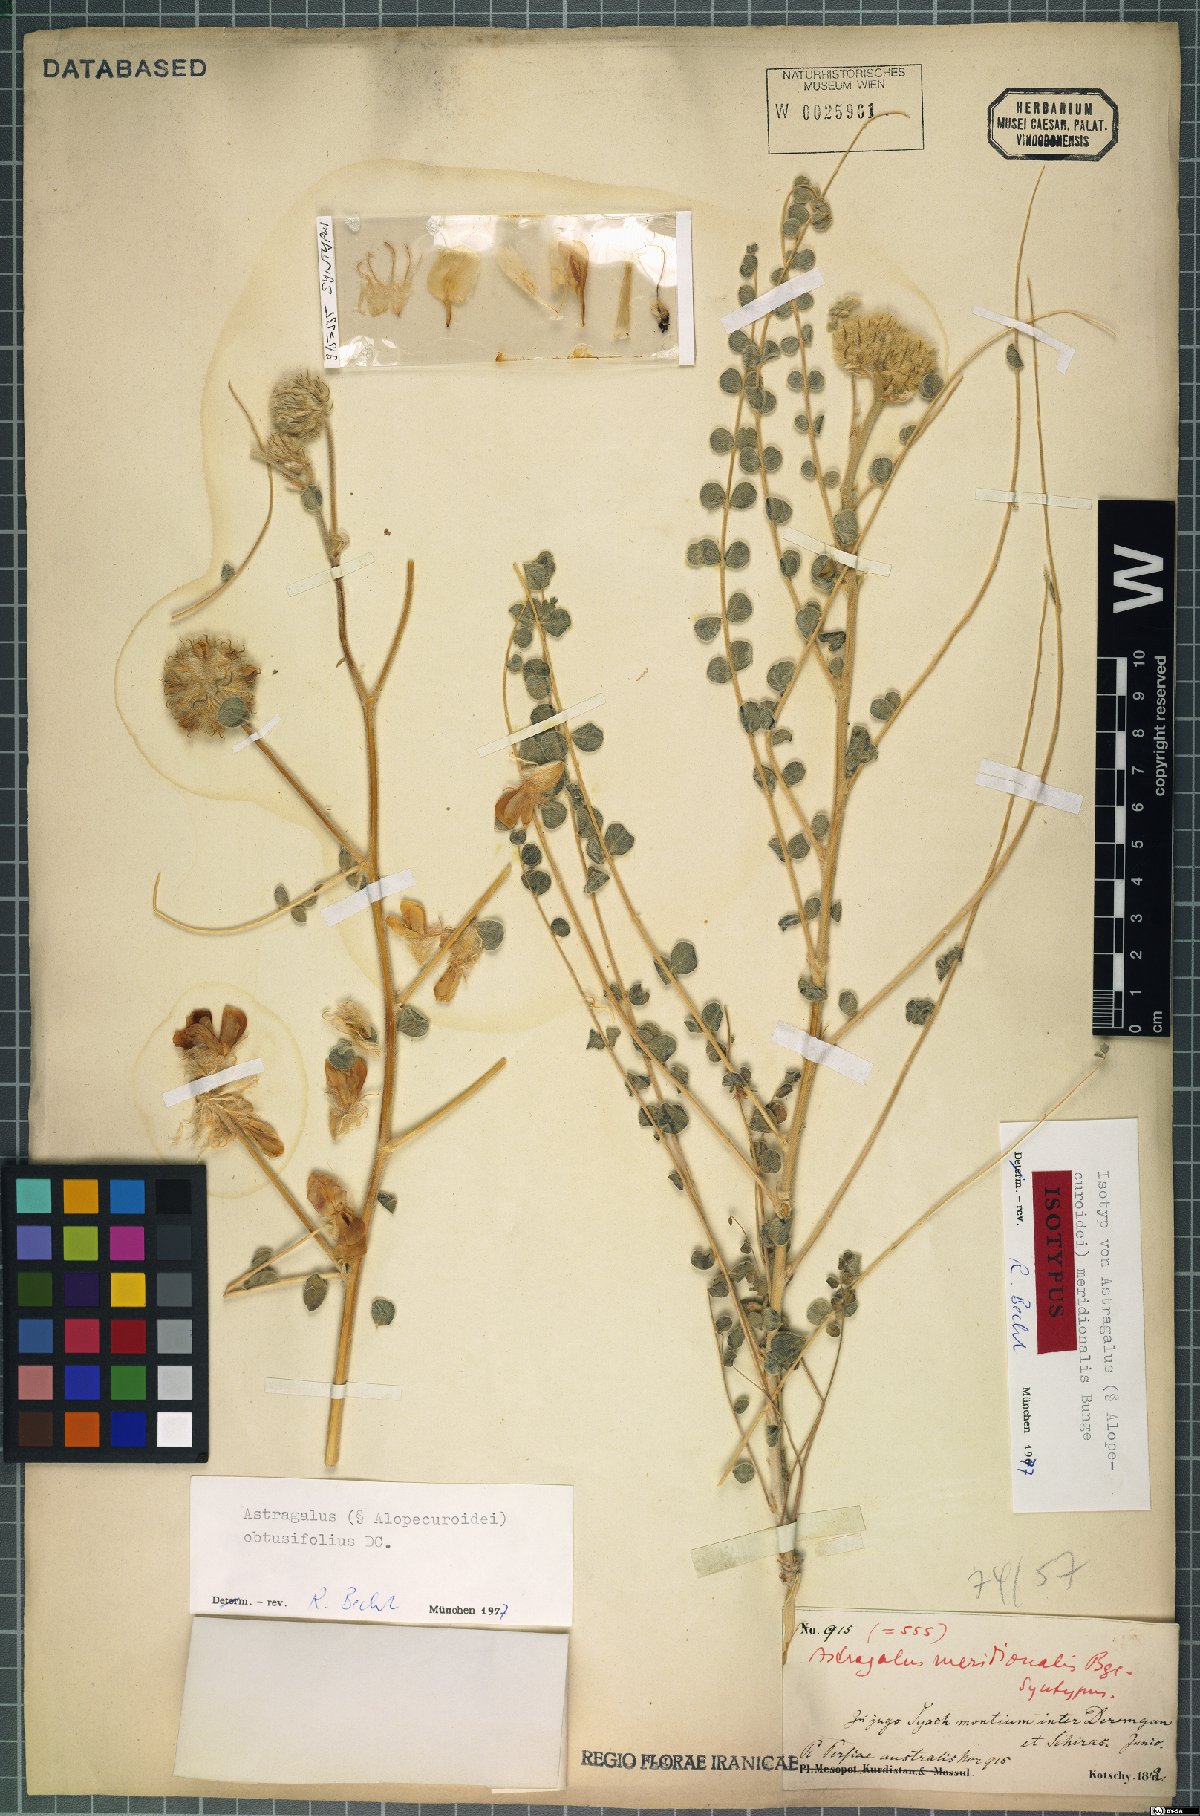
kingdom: Plantae
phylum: Tracheophyta
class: Magnoliopsida
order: Fabales
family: Fabaceae
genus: Astragalus
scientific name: Astragalus obtusifolius
